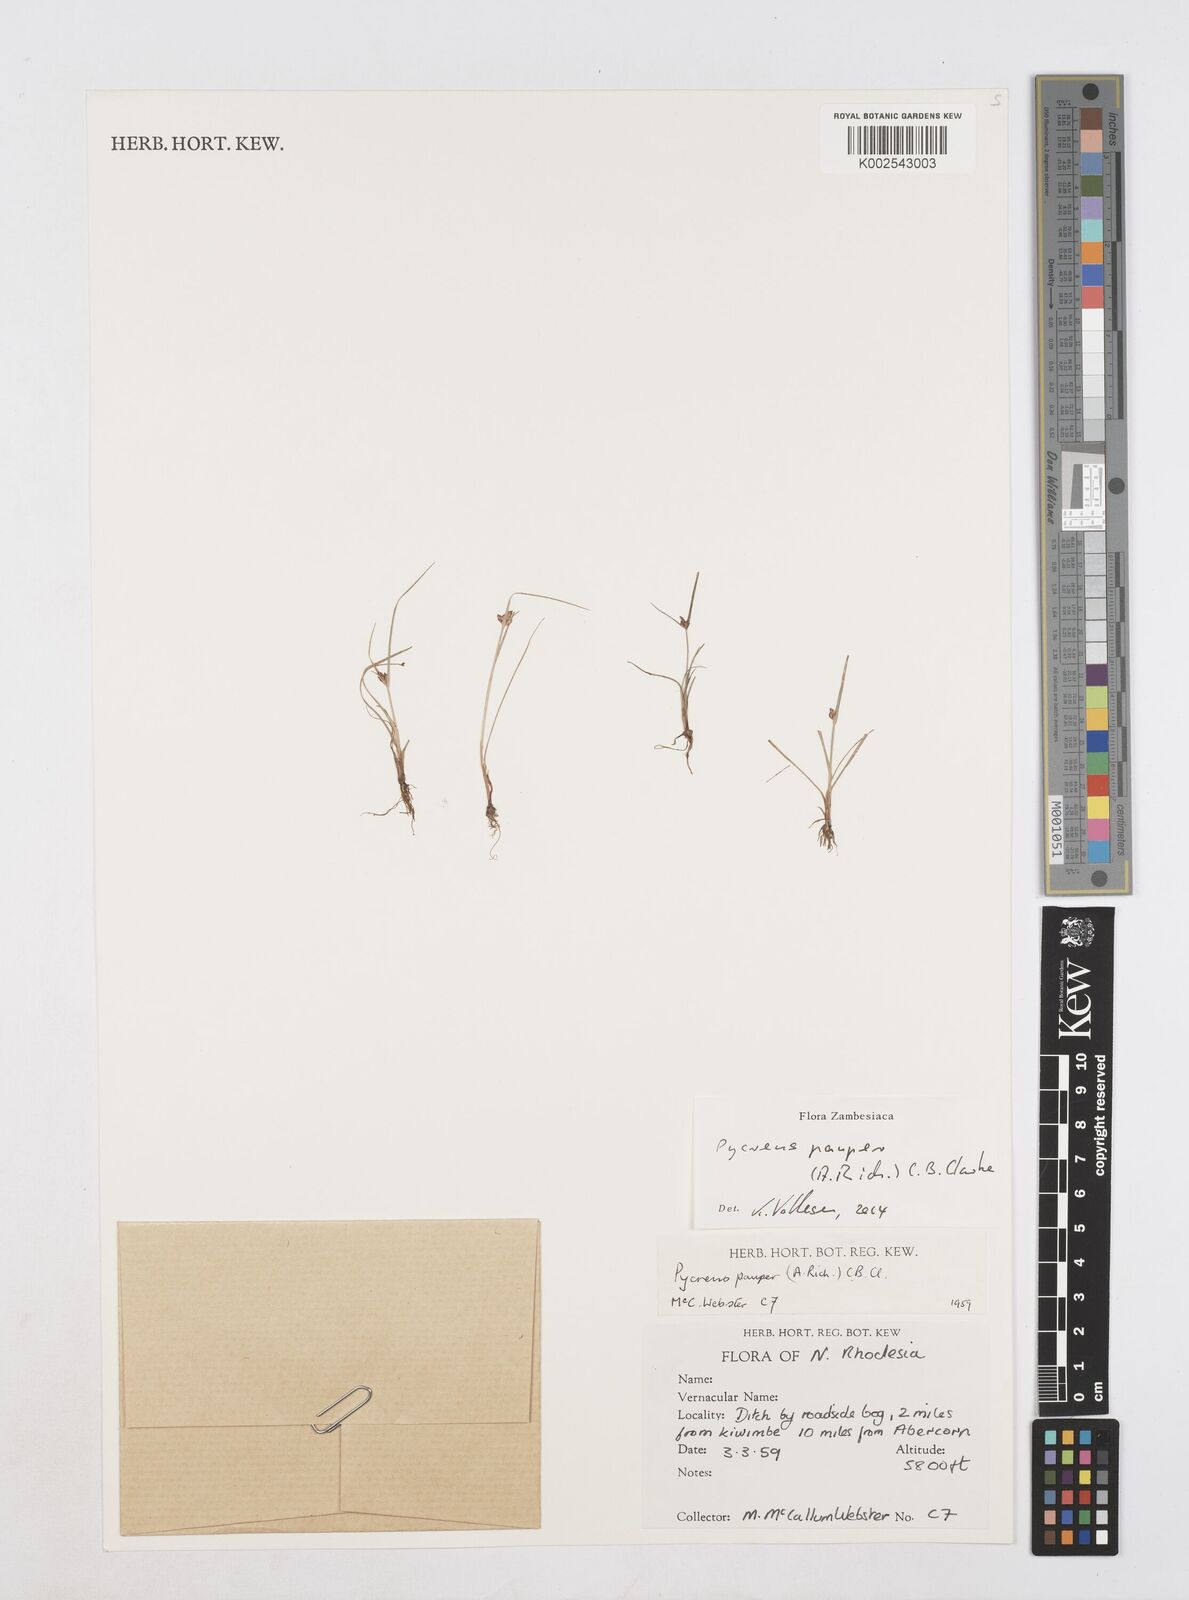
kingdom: Plantae
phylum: Tracheophyta
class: Liliopsida
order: Poales
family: Cyperaceae
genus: Cyperus
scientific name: Cyperus pauper
